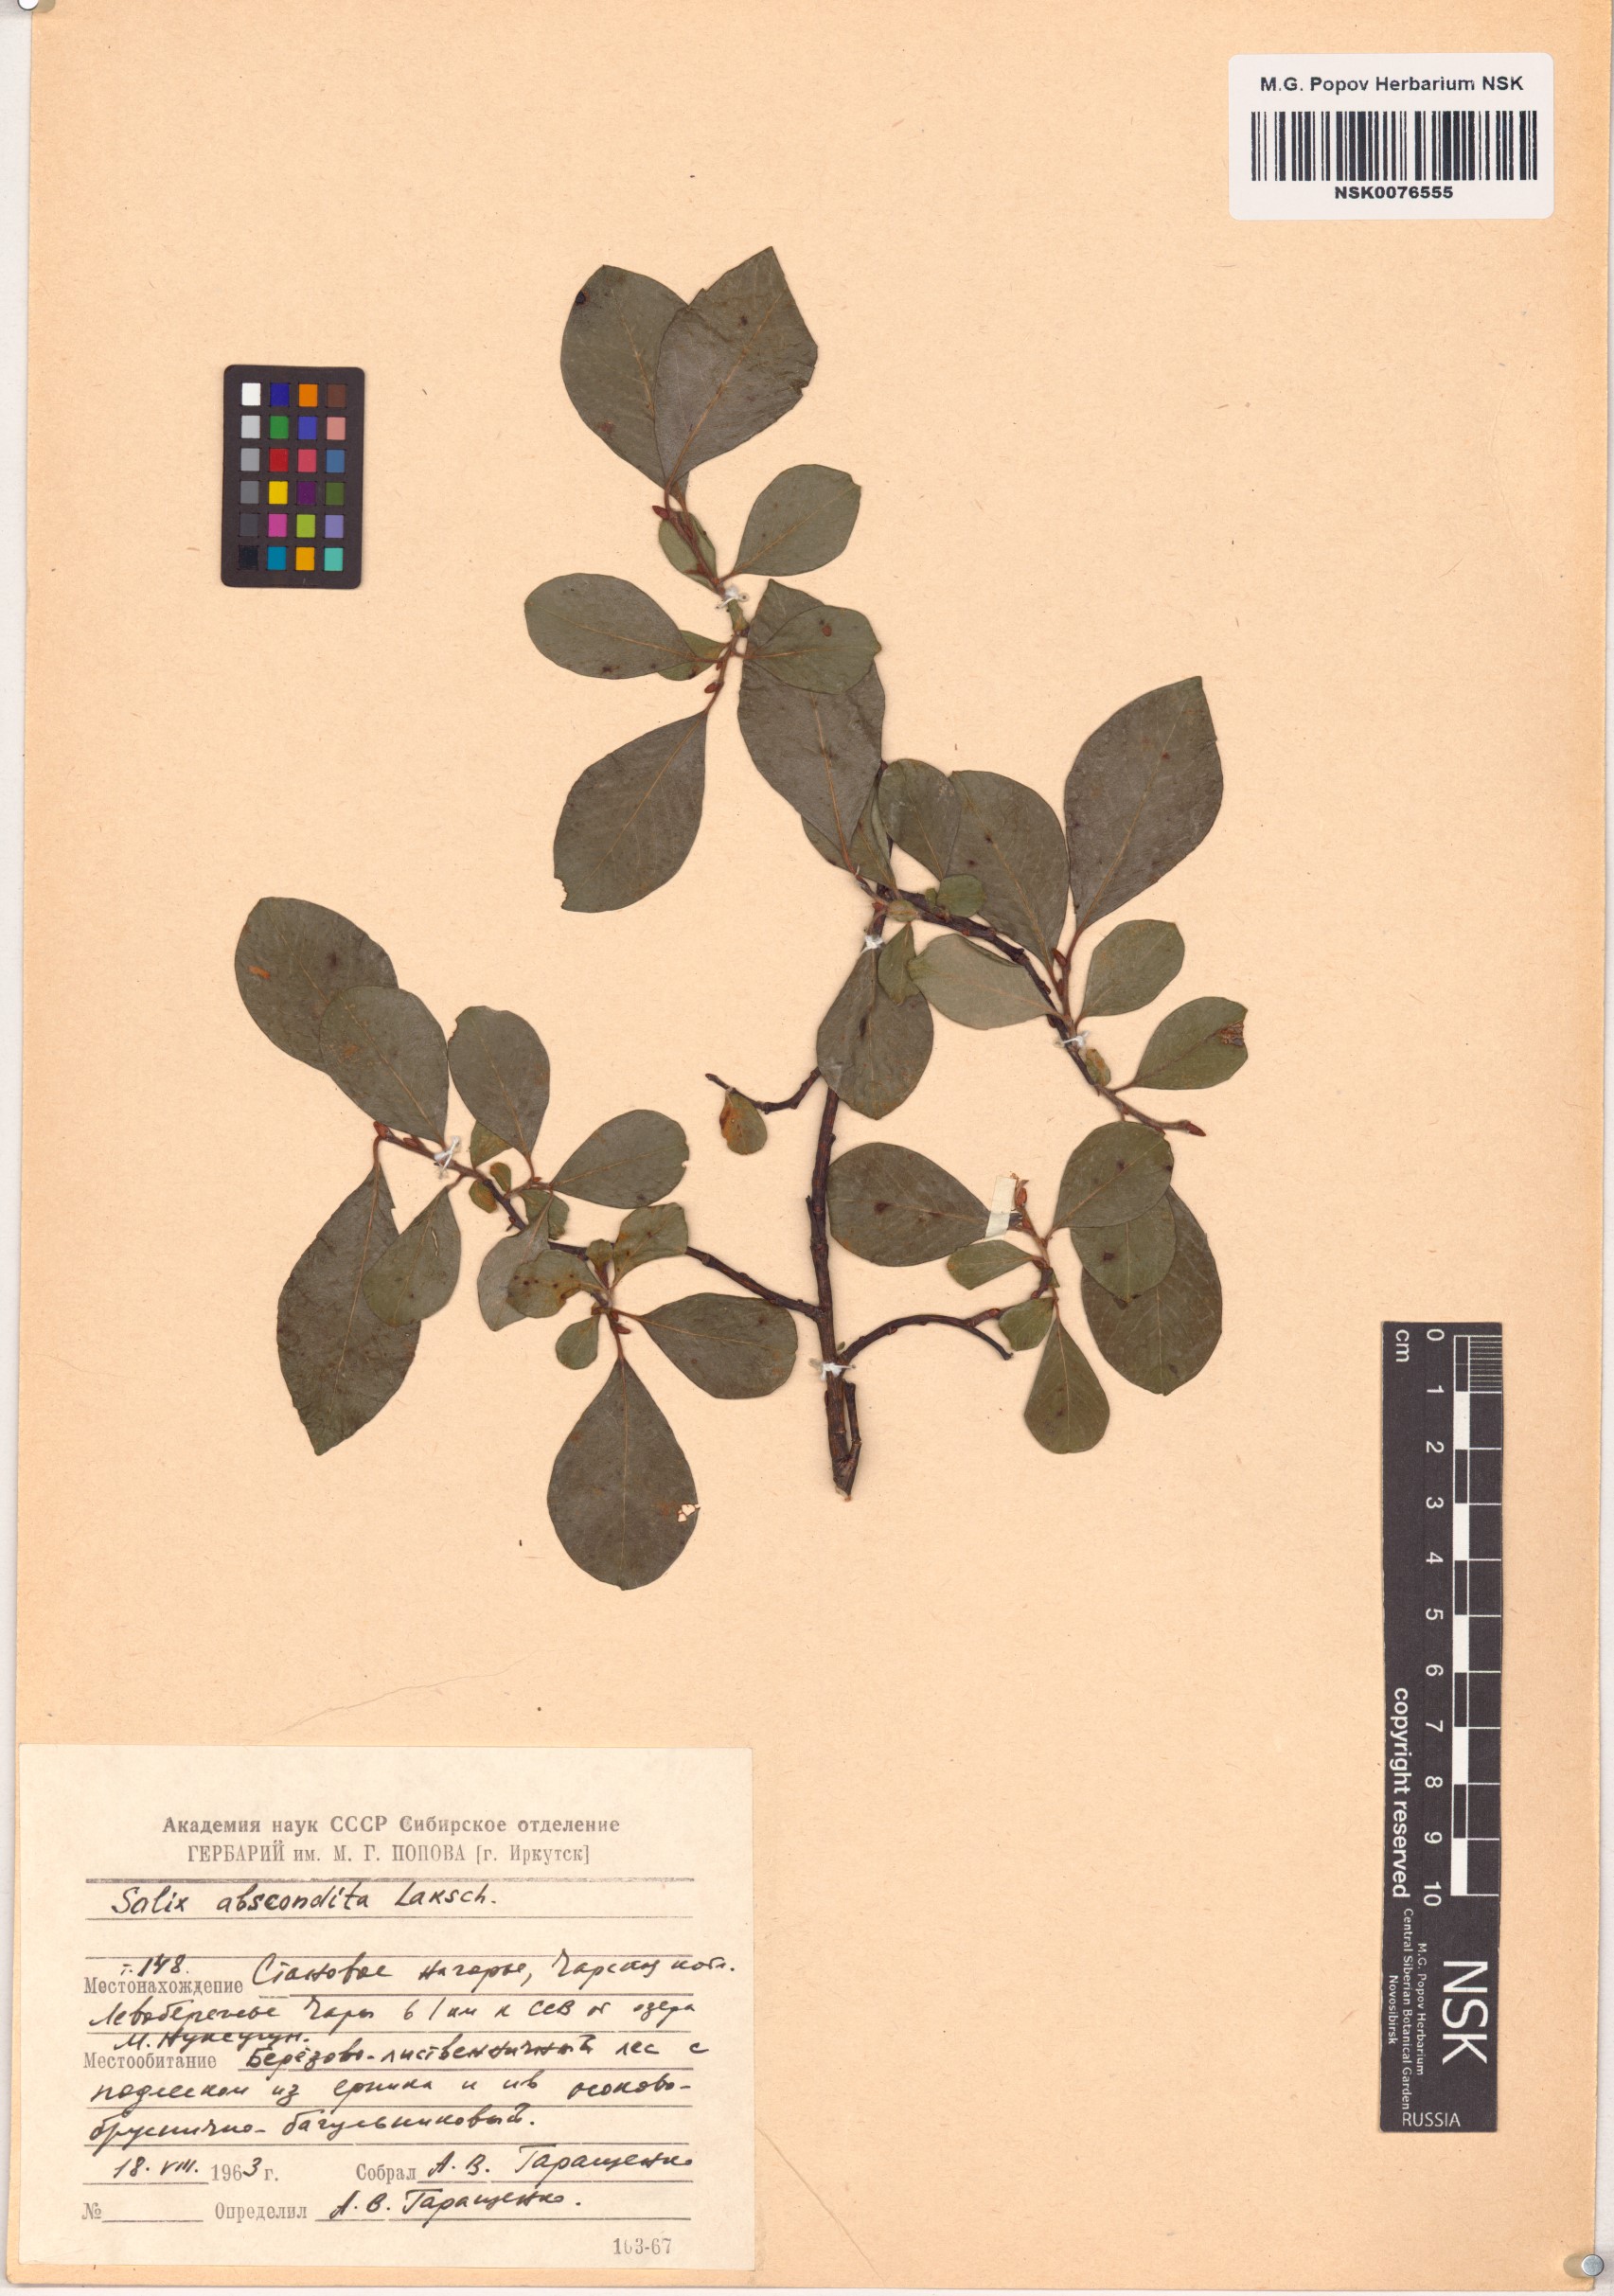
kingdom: Plantae
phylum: Tracheophyta
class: Magnoliopsida
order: Malpighiales
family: Salicaceae
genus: Salix
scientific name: Salix abscondita
